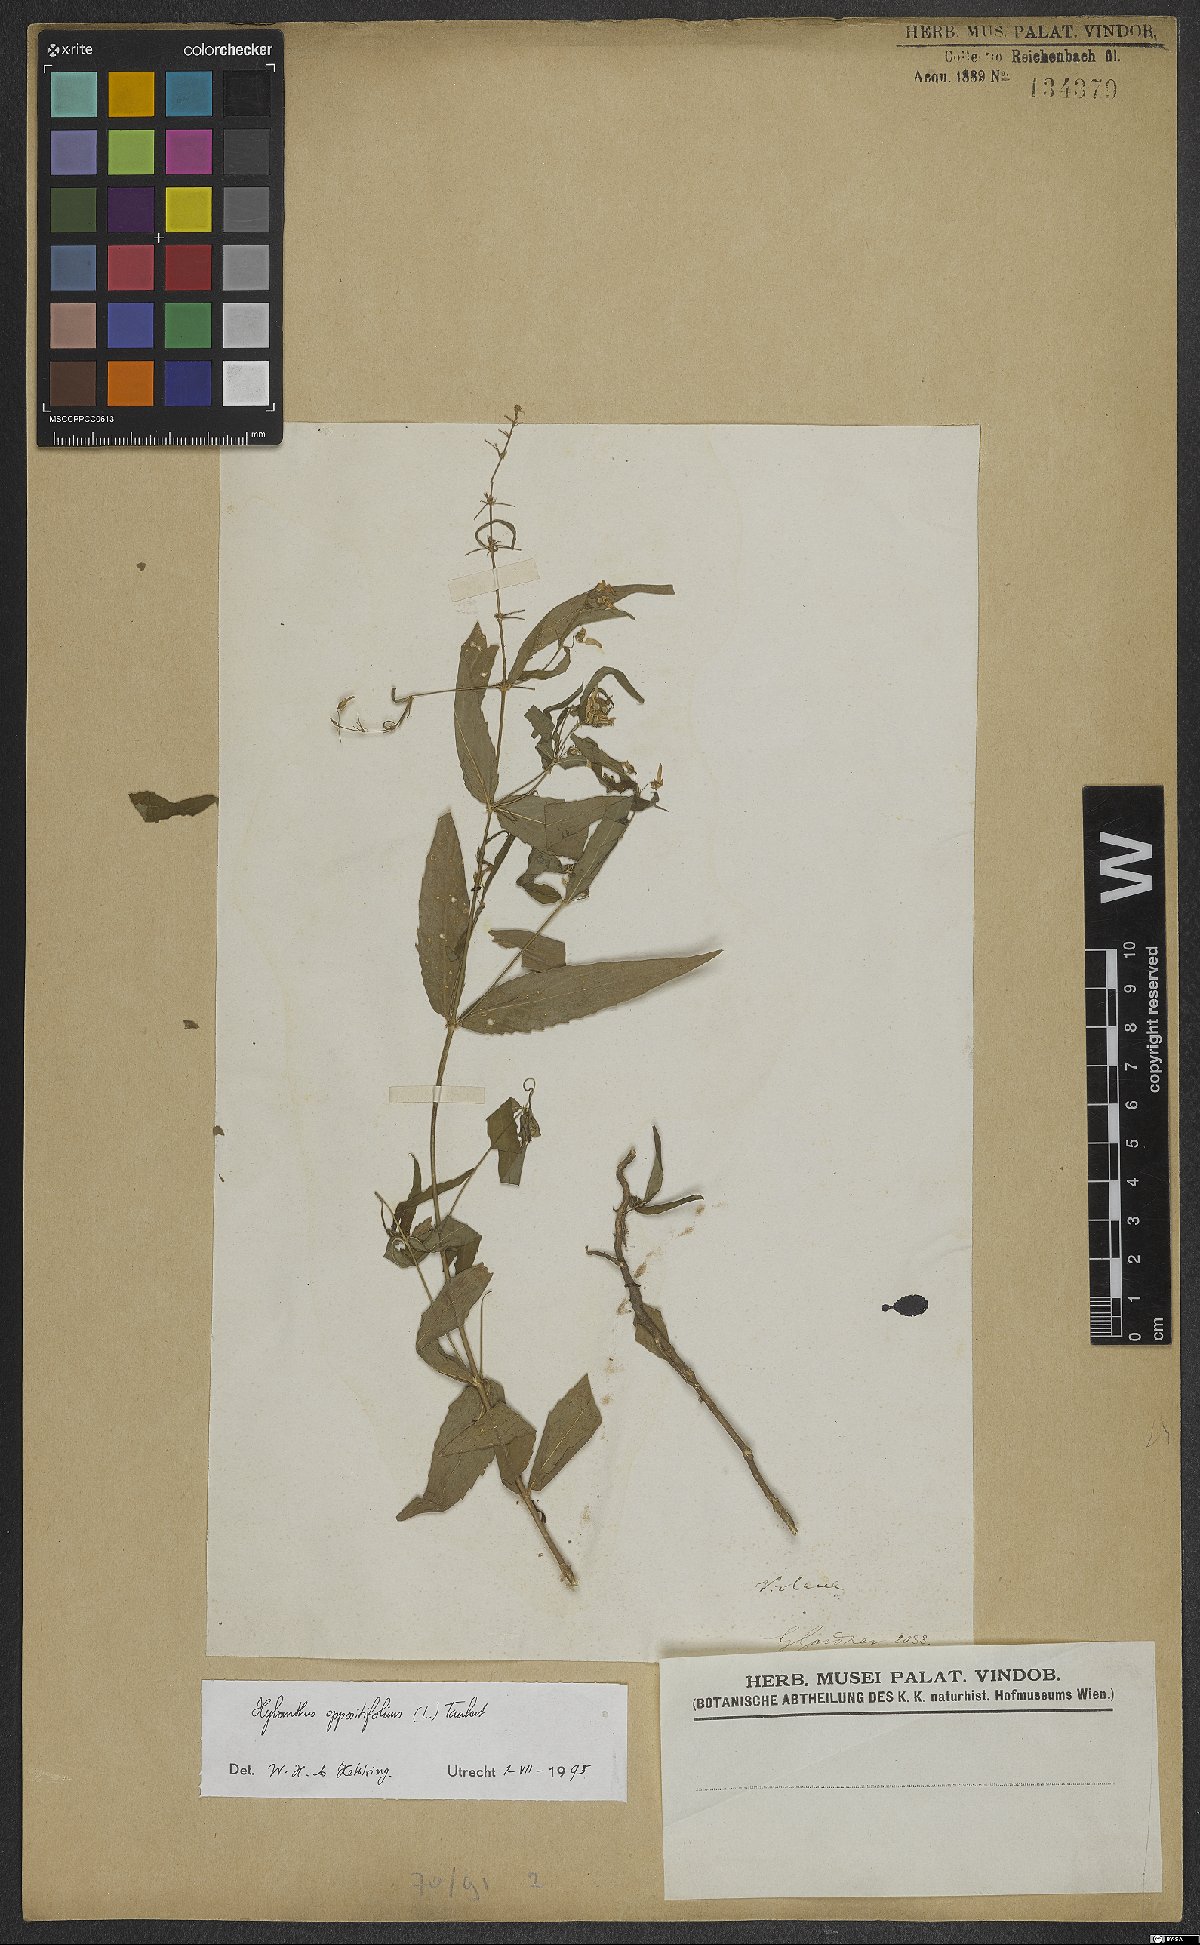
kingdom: Plantae
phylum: Tracheophyta
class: Magnoliopsida
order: Malpighiales
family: Violaceae
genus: Pombalia
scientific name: Pombalia oppositifolia
